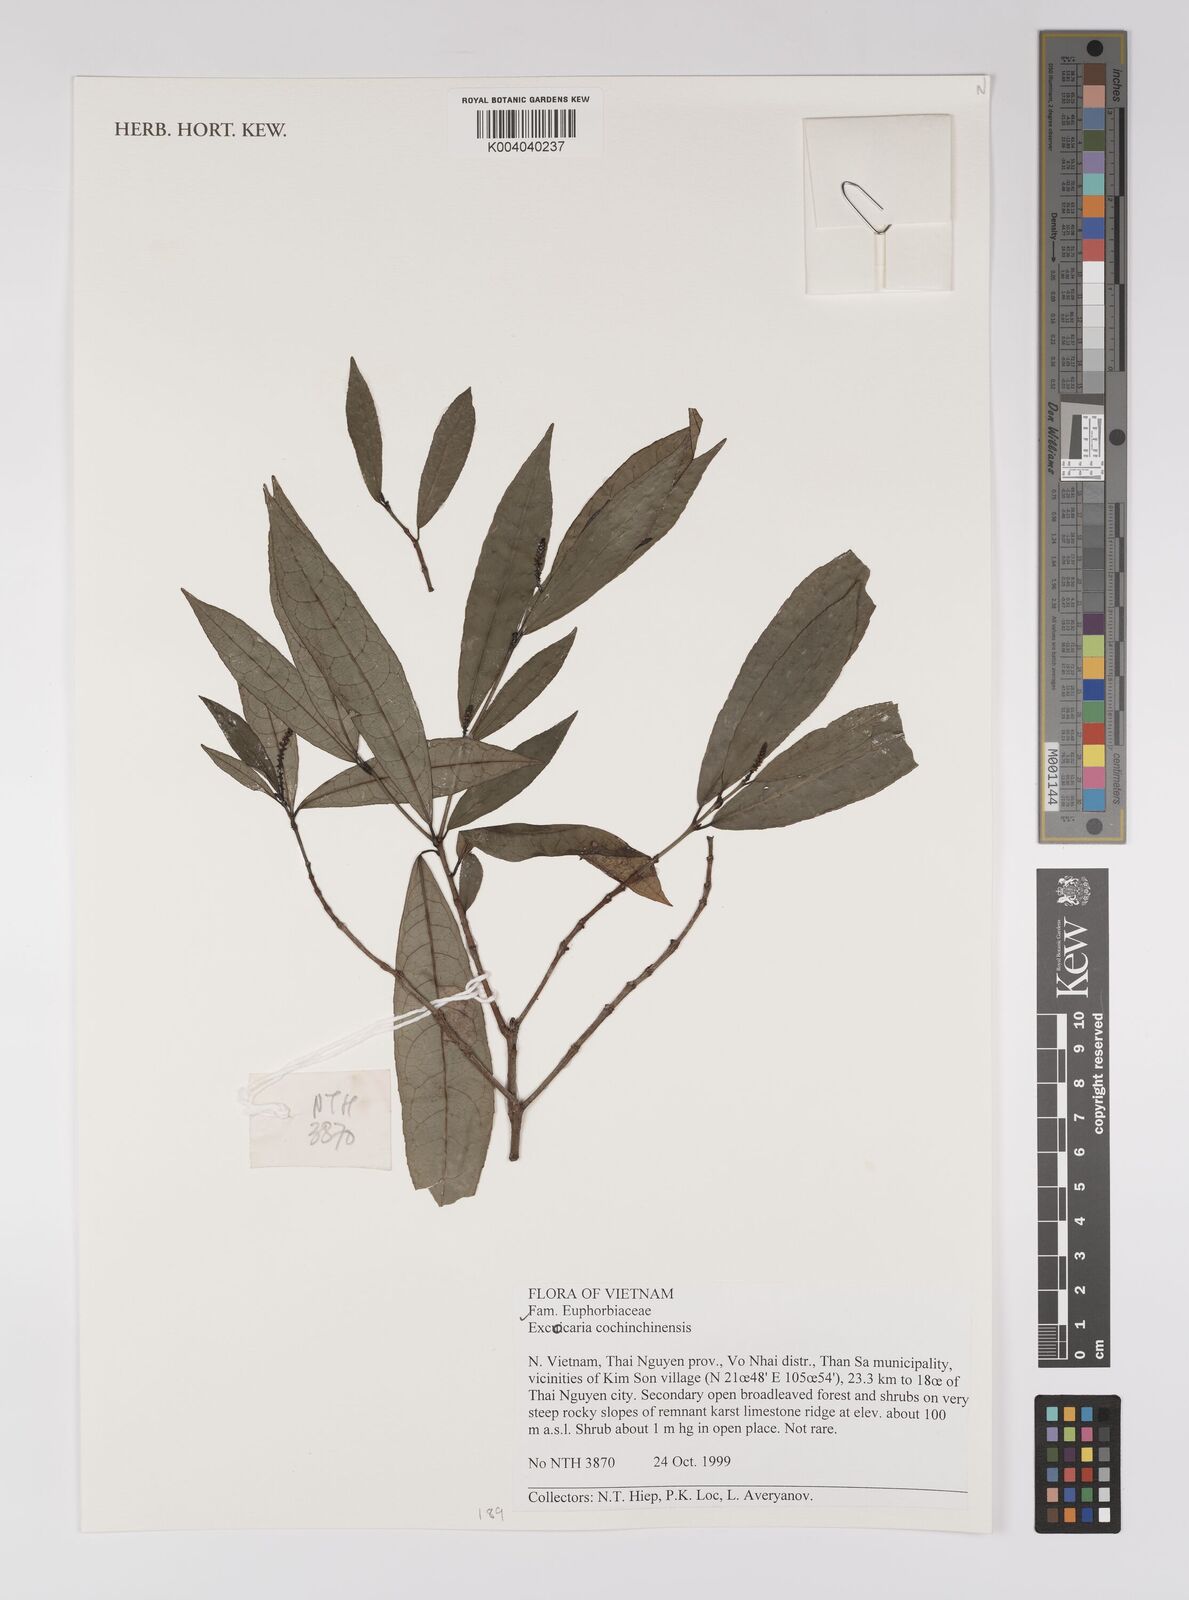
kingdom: Plantae
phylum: Tracheophyta
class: Magnoliopsida
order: Malpighiales
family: Euphorbiaceae
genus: Excoecaria
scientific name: Excoecaria cochinchinensis
